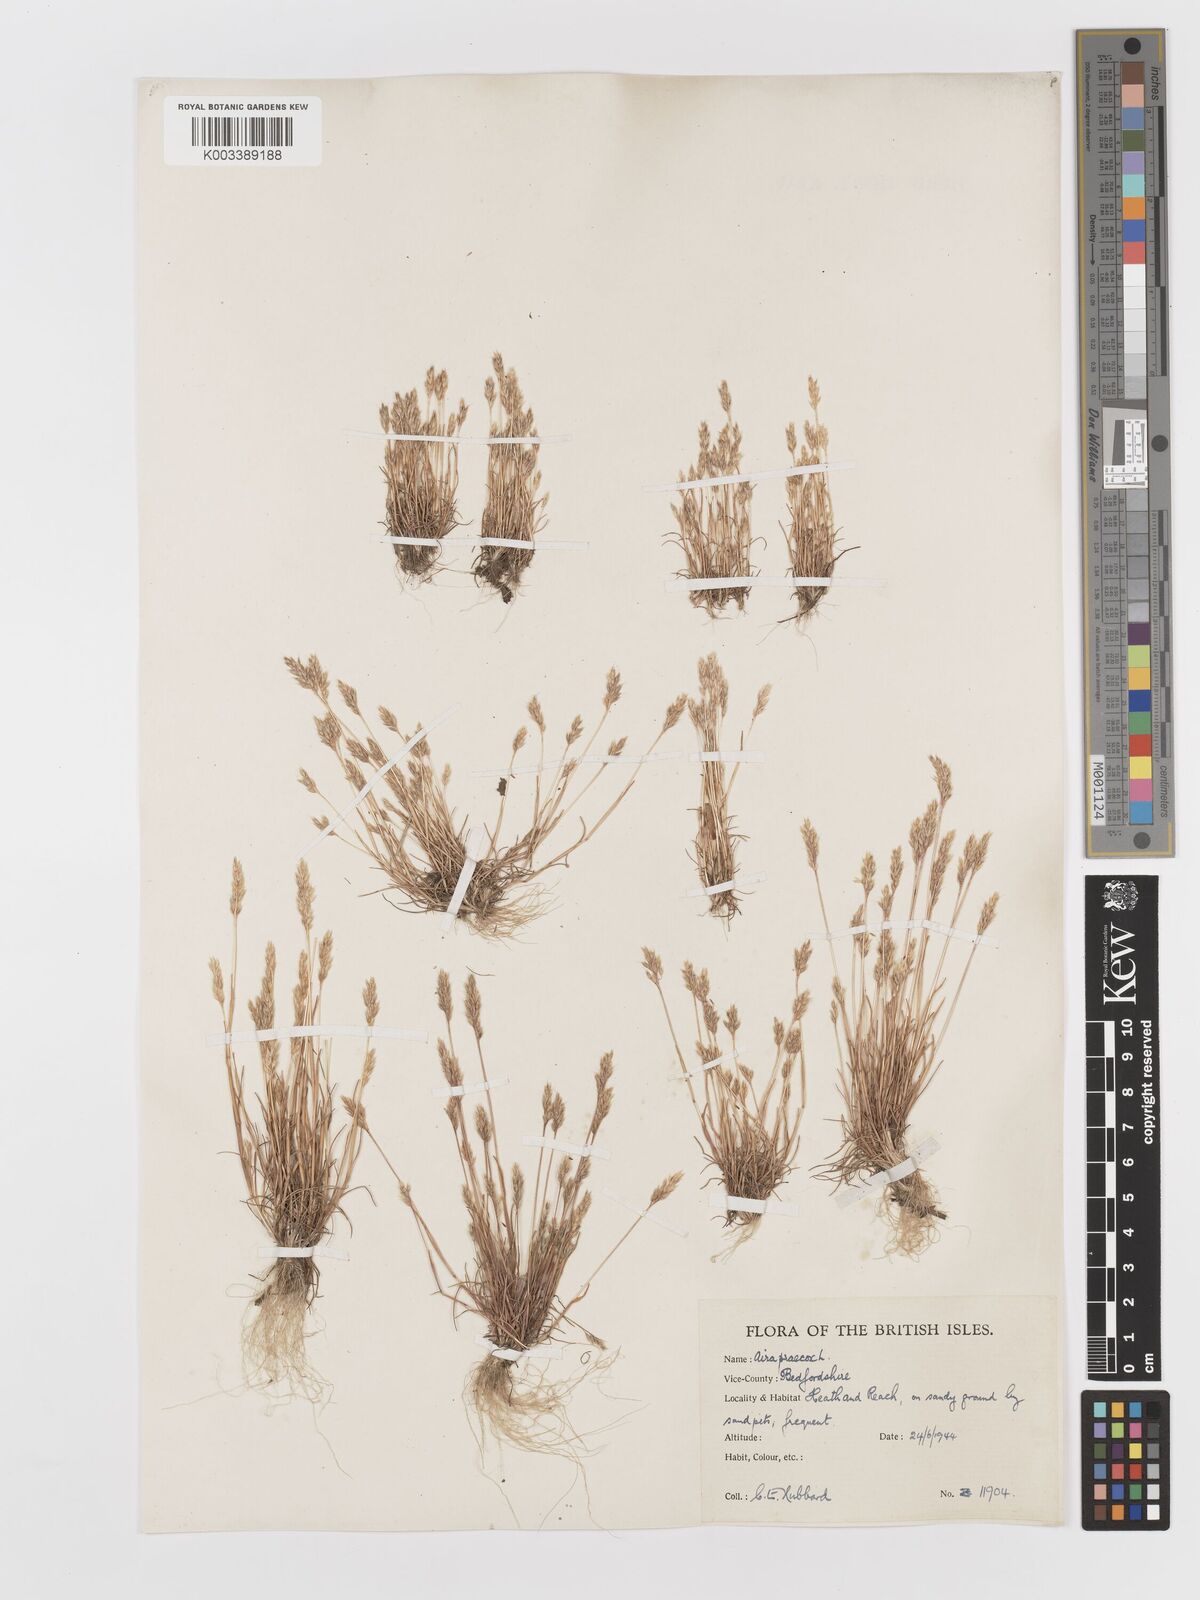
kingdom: Plantae
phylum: Tracheophyta
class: Liliopsida
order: Poales
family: Poaceae
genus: Aira
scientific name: Aira praecox
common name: Early hair-grass
